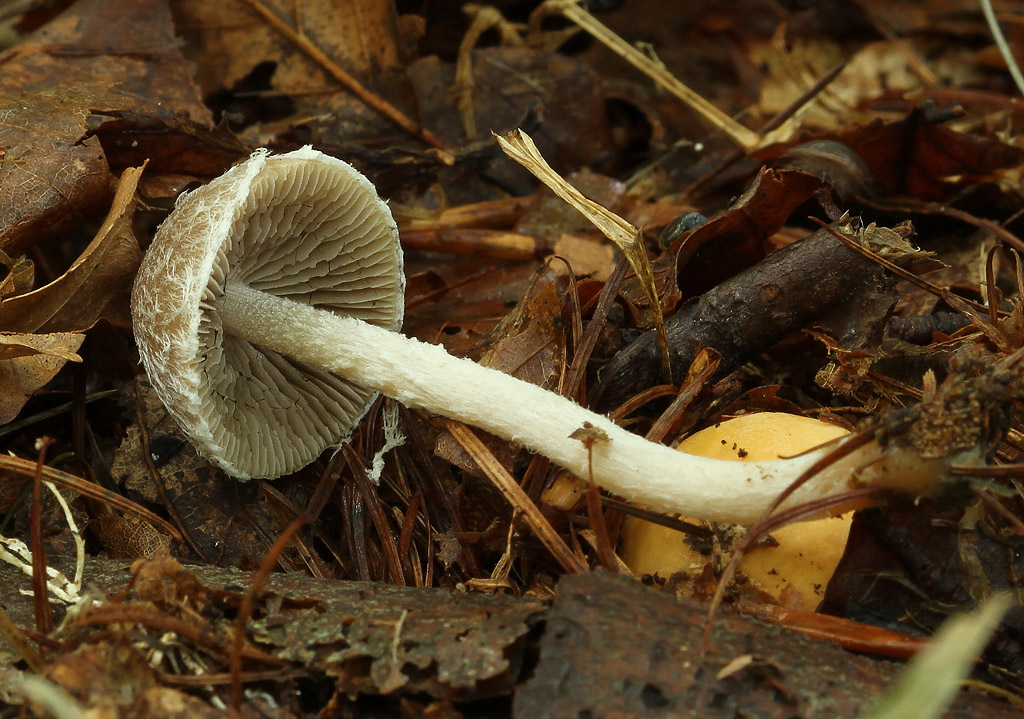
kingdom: Fungi
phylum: Basidiomycota
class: Agaricomycetes
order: Agaricales
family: Psathyrellaceae
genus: Psathyrella
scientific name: Psathyrella impexa
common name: rødmende mørkhat
